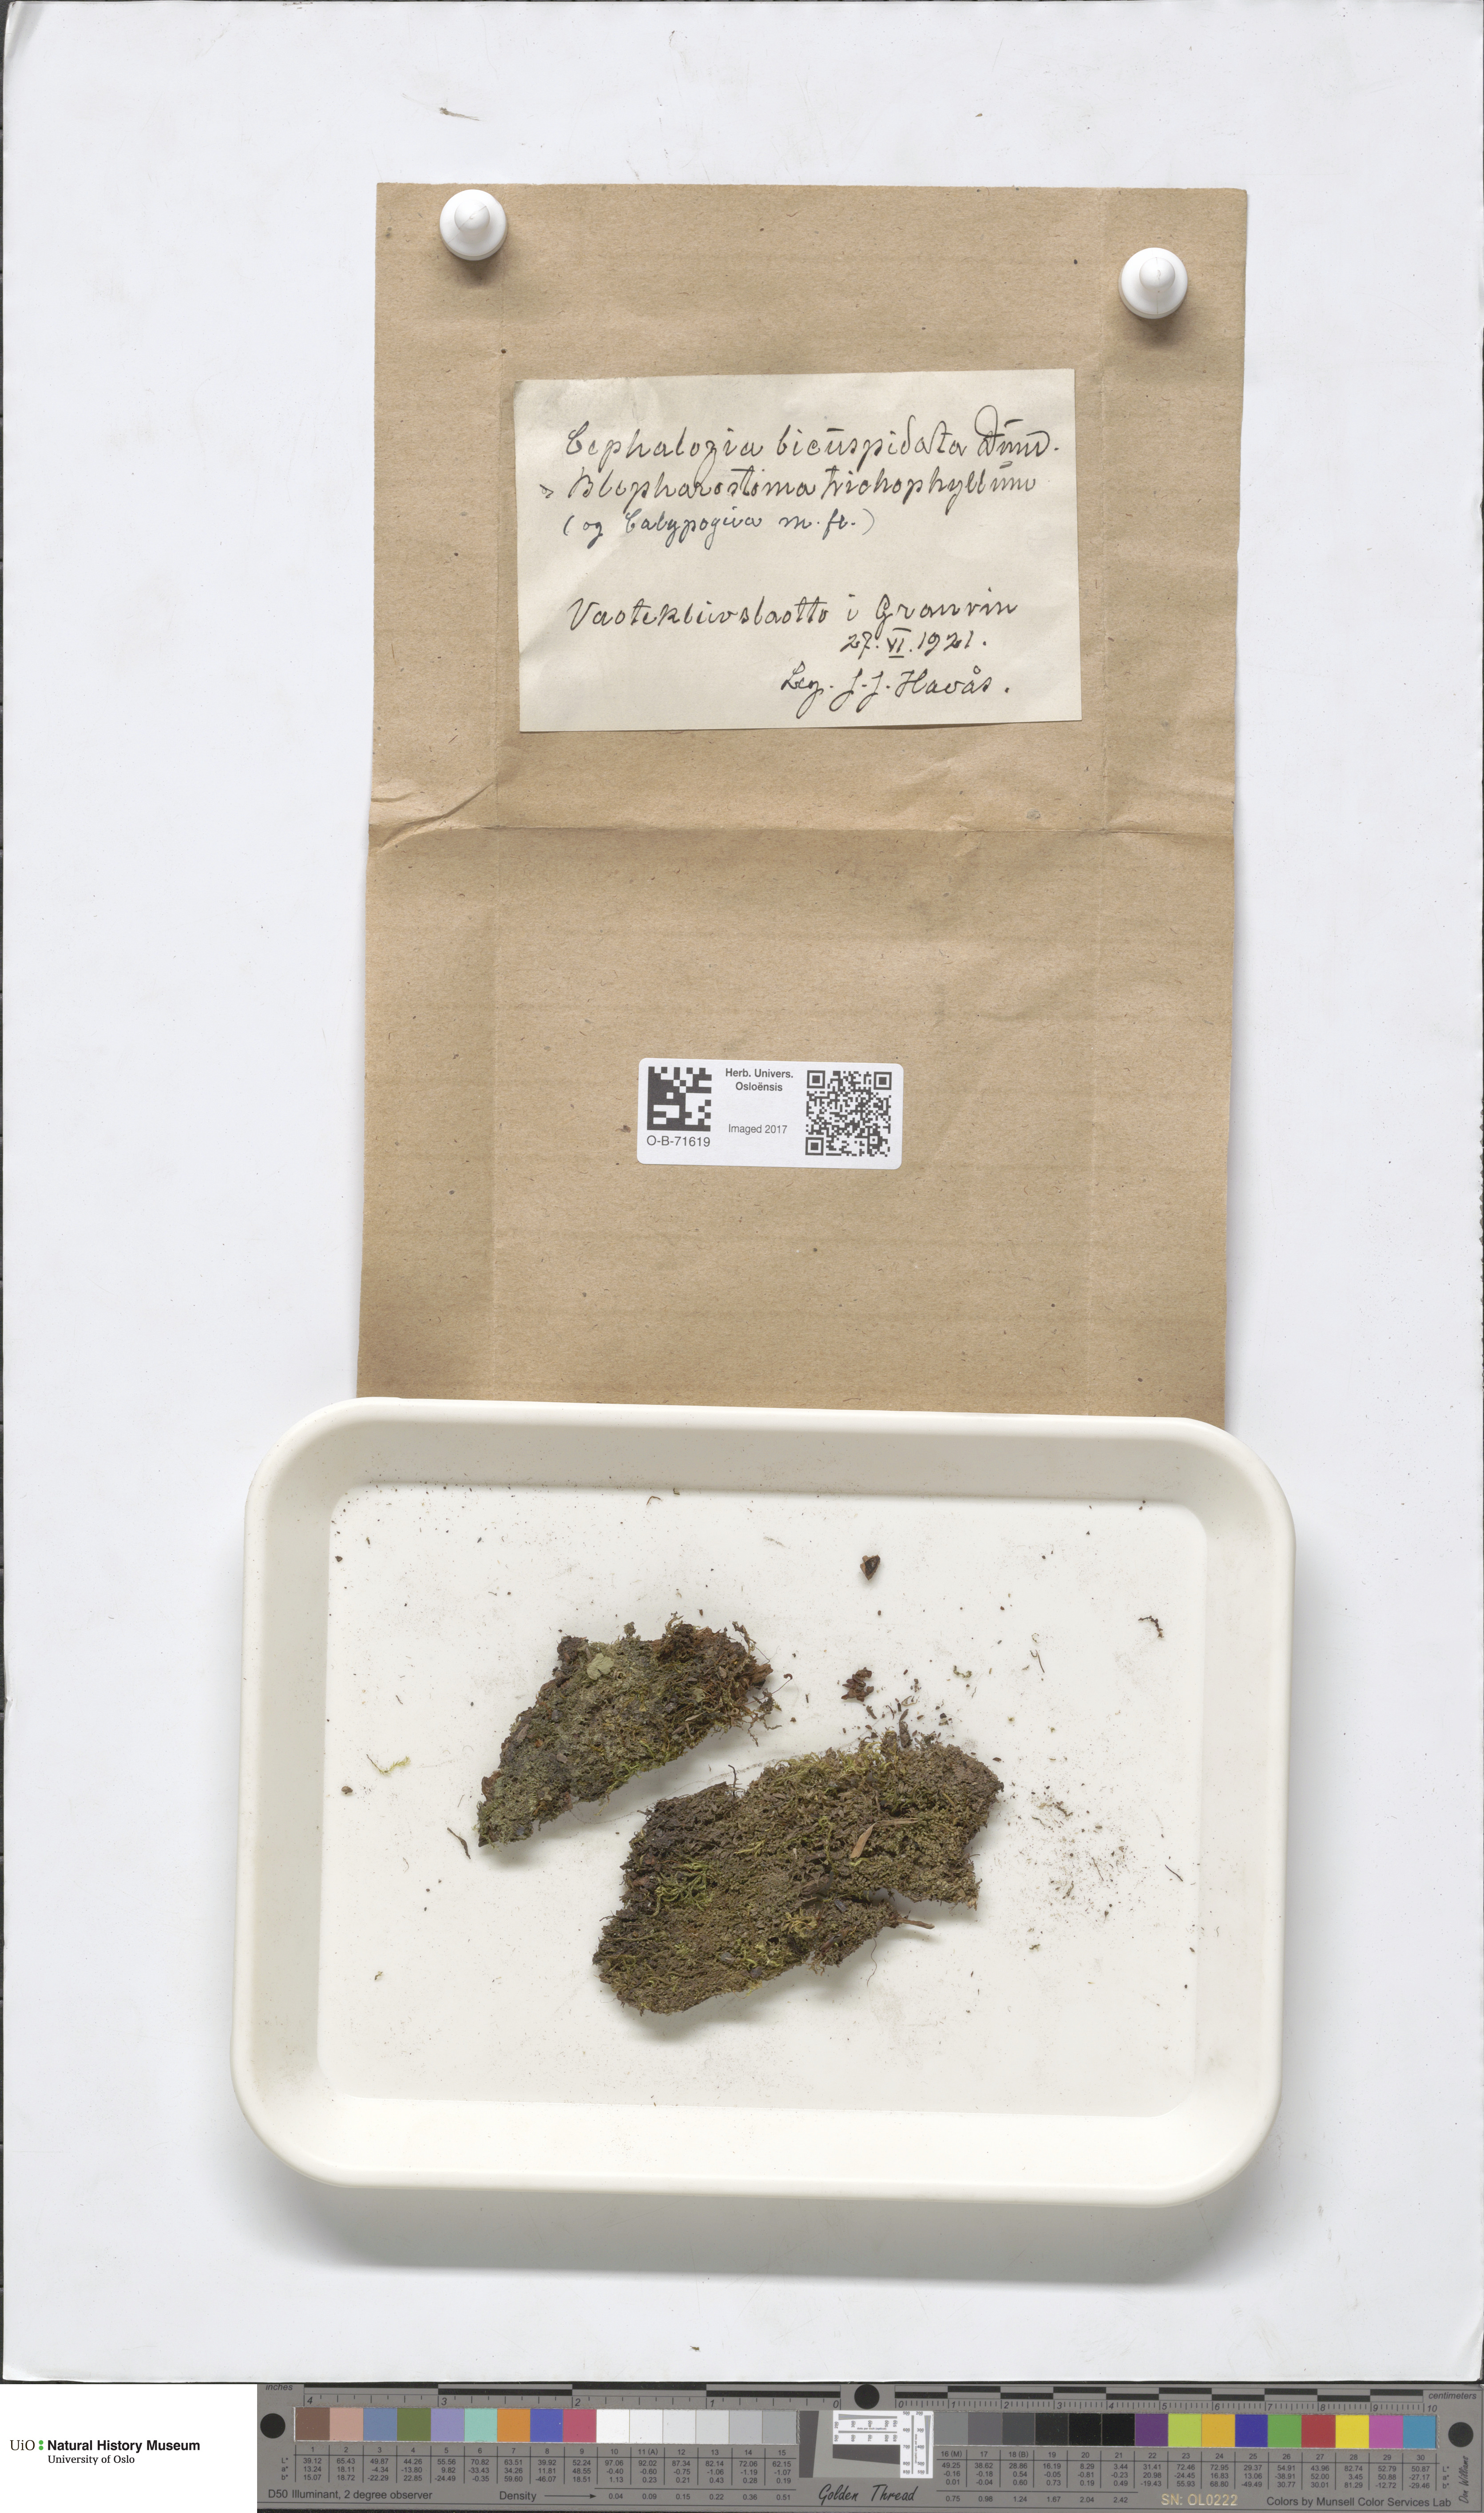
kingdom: Plantae
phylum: Marchantiophyta
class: Jungermanniopsida
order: Jungermanniales
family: Cephaloziaceae
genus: Cephalozia
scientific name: Cephalozia bicuspidata
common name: Two-horned pincerwort
